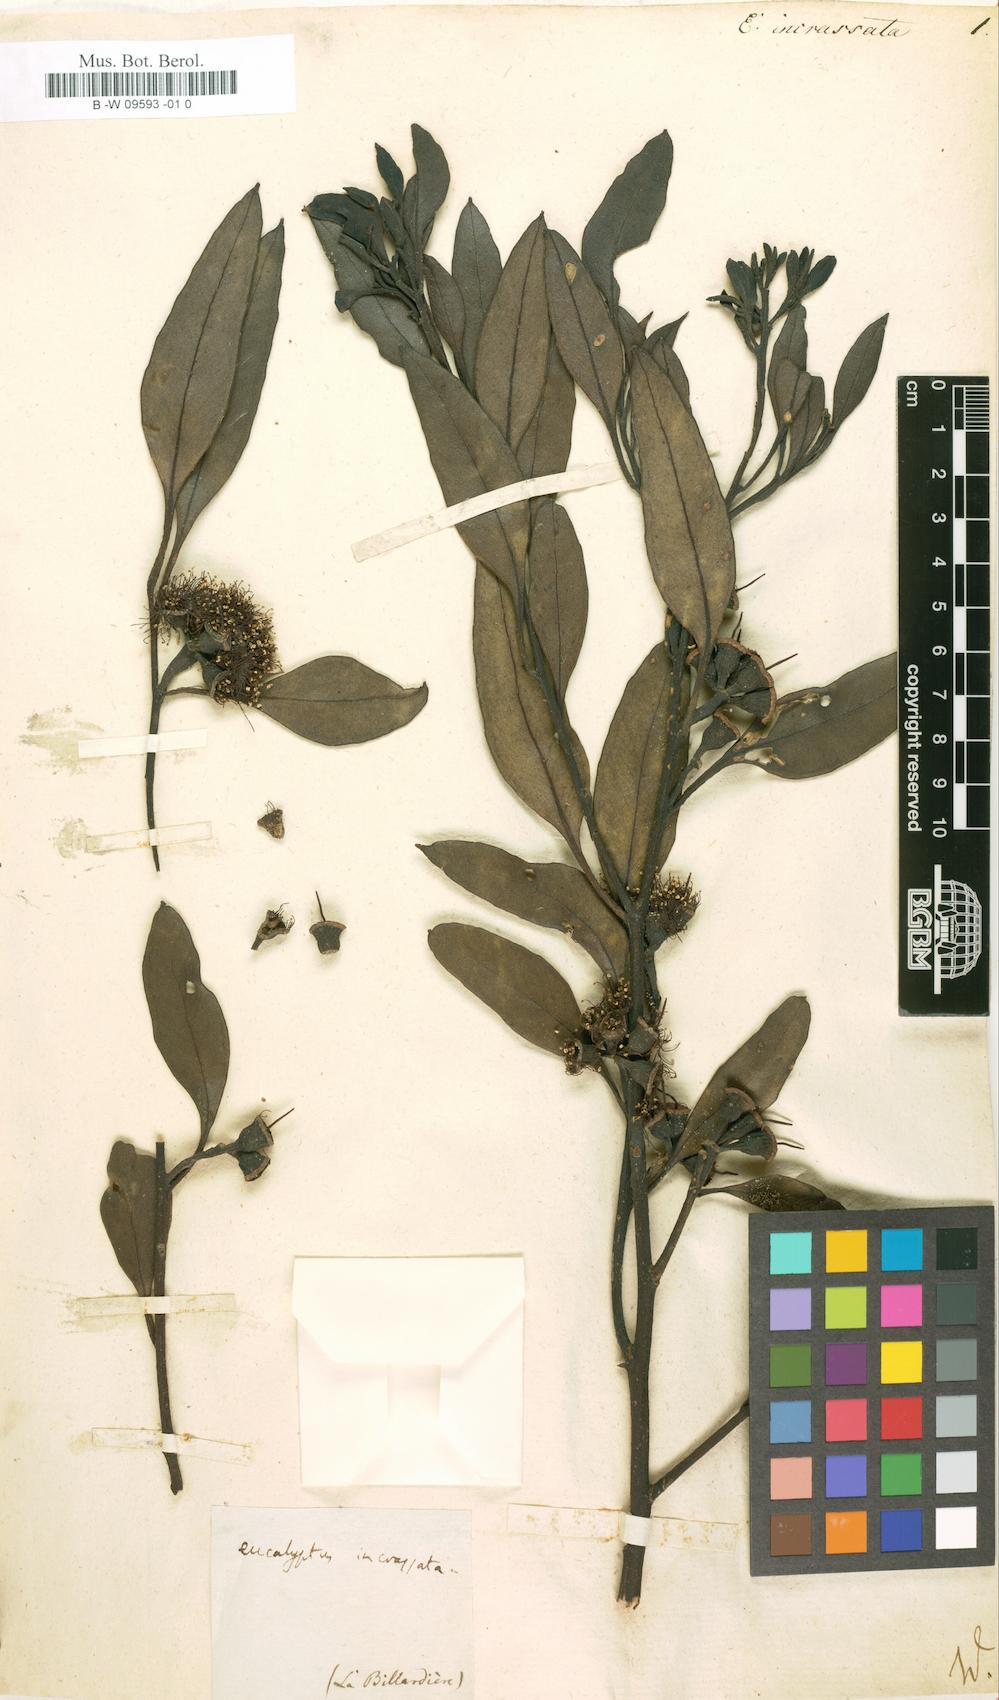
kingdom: Plantae
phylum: Tracheophyta
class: Magnoliopsida
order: Myrtales
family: Myrtaceae
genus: Eucalyptus
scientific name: Eucalyptus incrassata
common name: Ridge-fruit mallee
